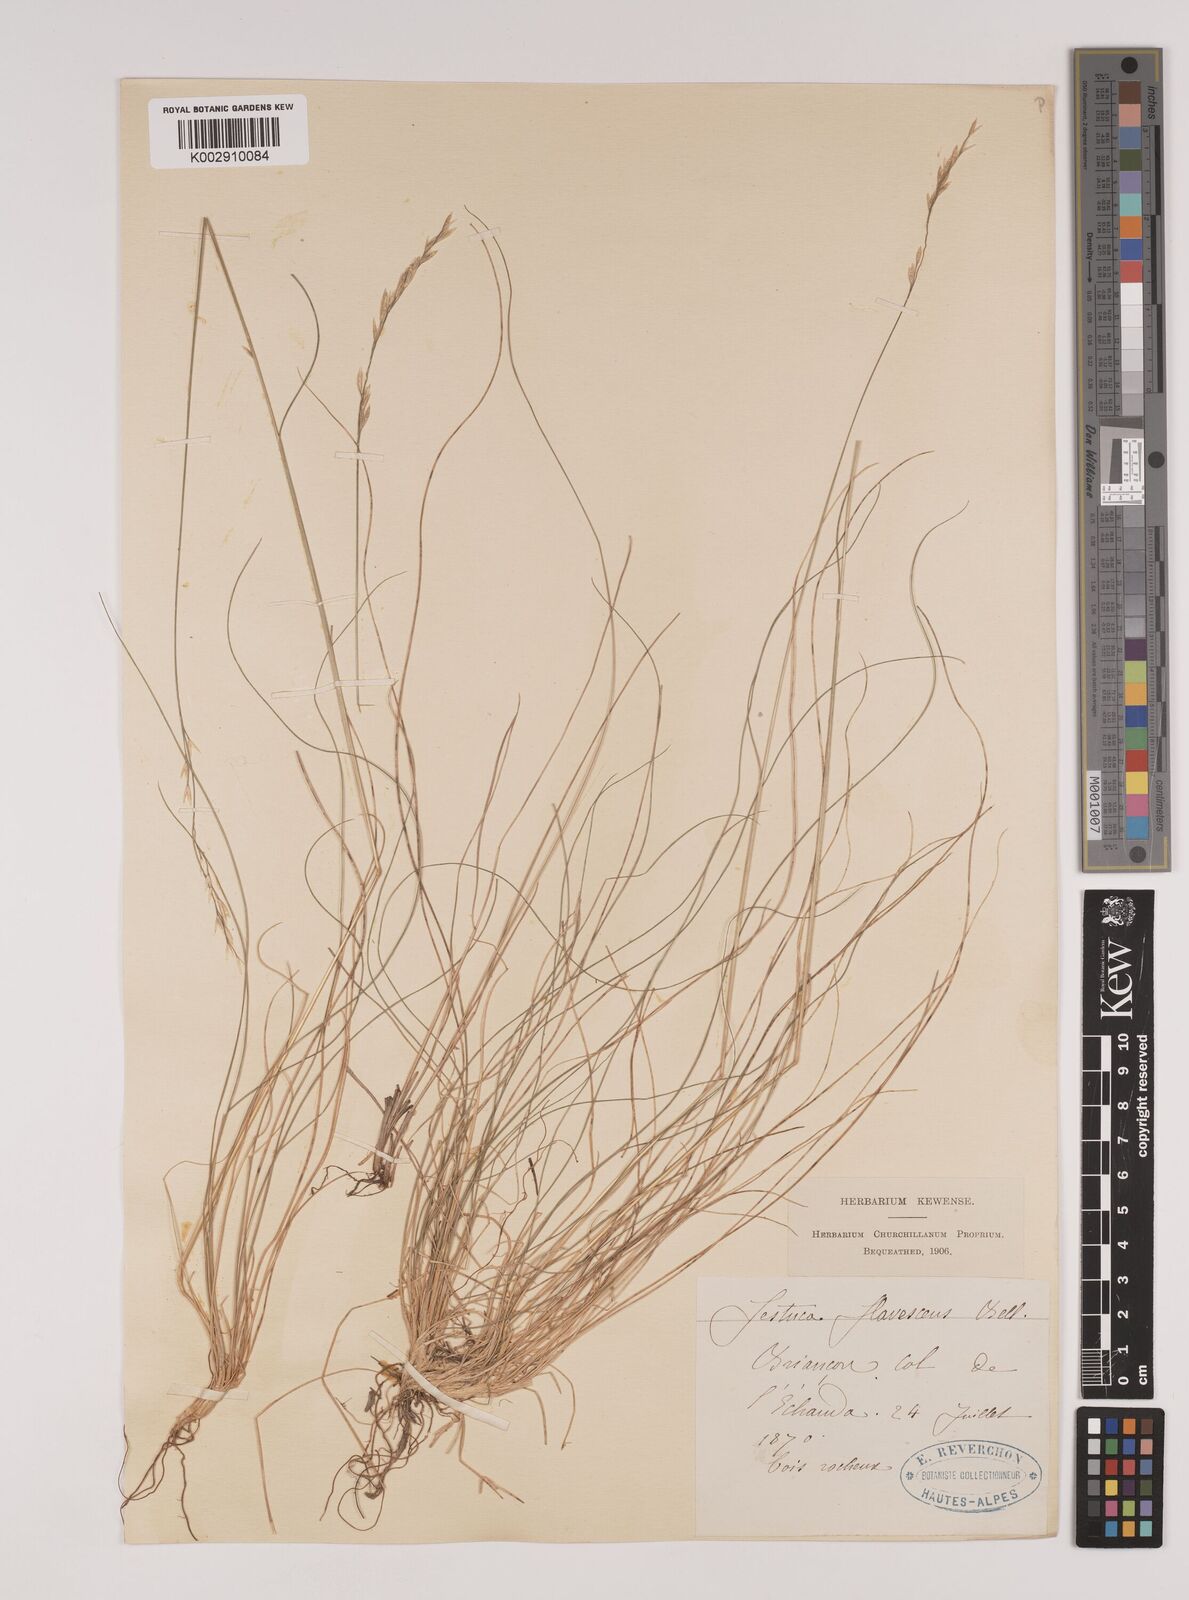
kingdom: Plantae
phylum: Tracheophyta
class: Liliopsida
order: Poales
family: Poaceae
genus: Festuca
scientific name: Festuca flavescens
